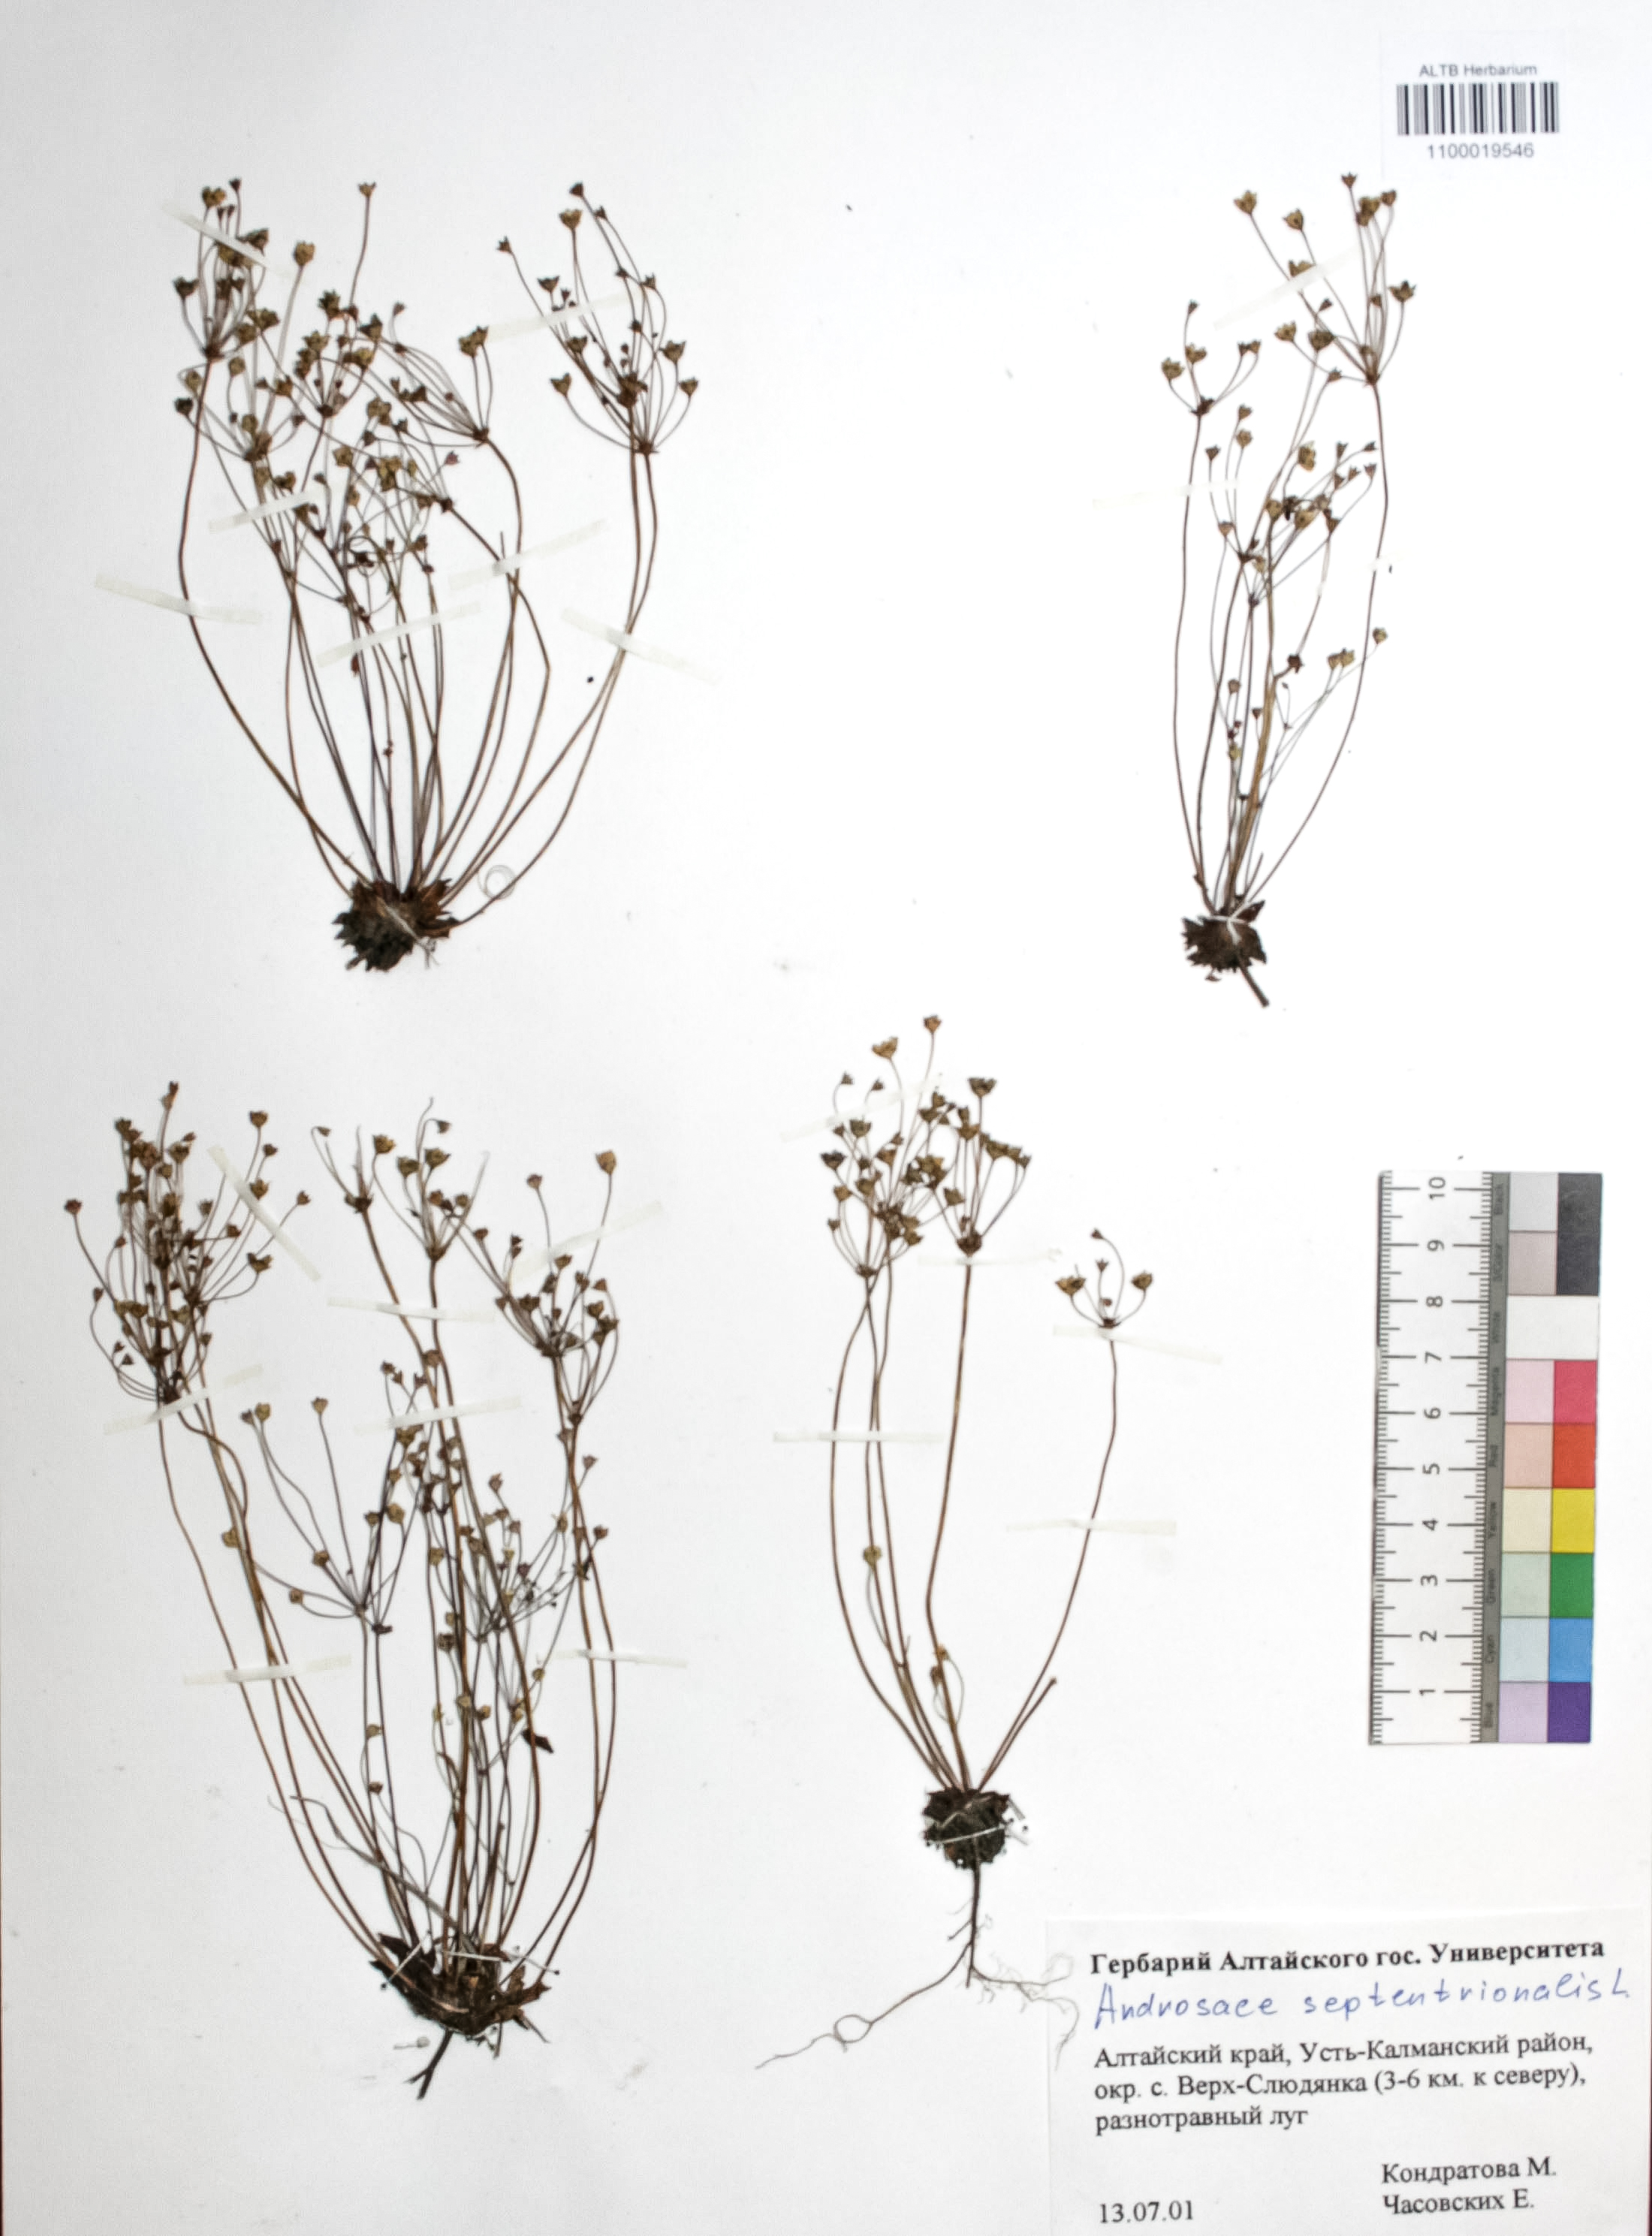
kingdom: Plantae
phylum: Tracheophyta
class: Magnoliopsida
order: Ericales
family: Primulaceae
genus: Androsace
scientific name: Androsace septentrionalis
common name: Hairy northern fairy-candelabra
